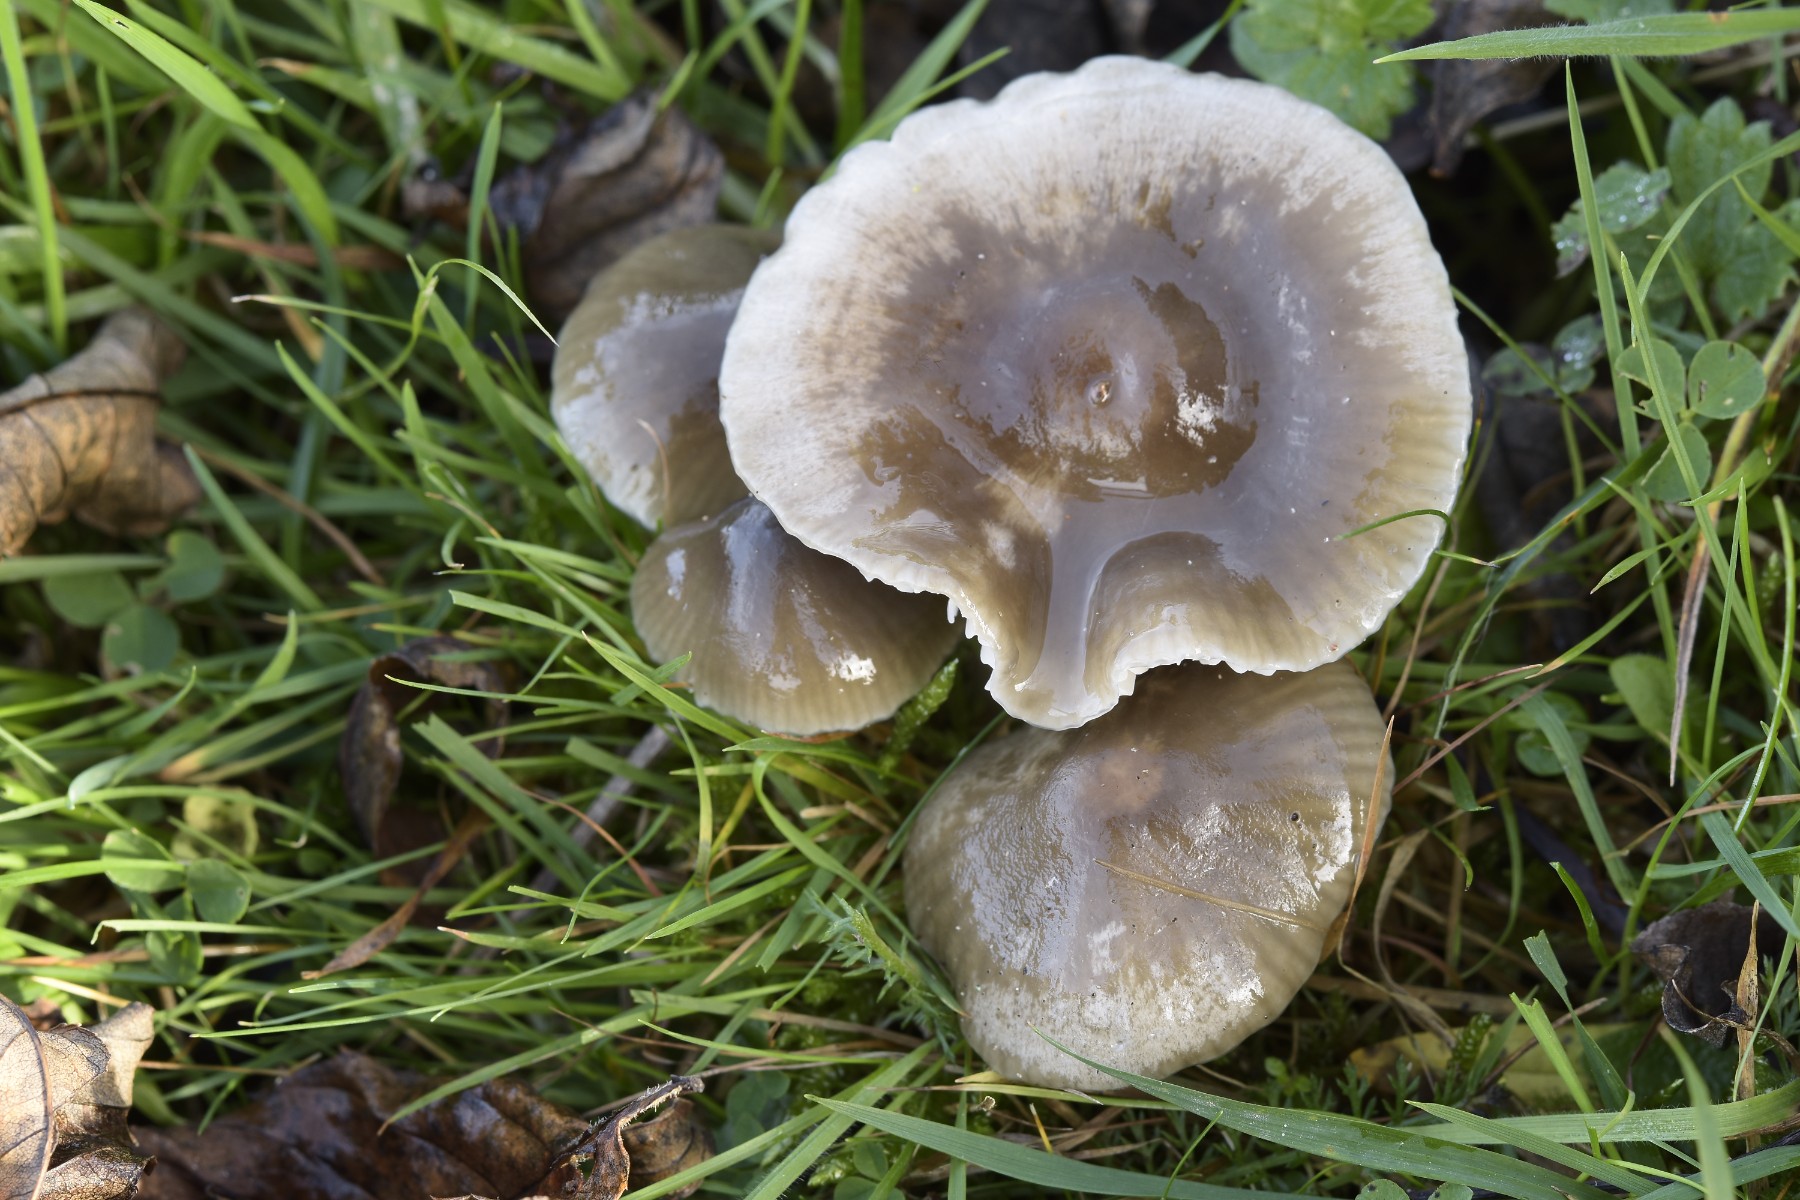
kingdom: Fungi
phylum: Basidiomycota
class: Agaricomycetes
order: Agaricales
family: Hygrophoraceae
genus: Gliophorus
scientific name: Gliophorus irrigatus
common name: slimet vokshat
